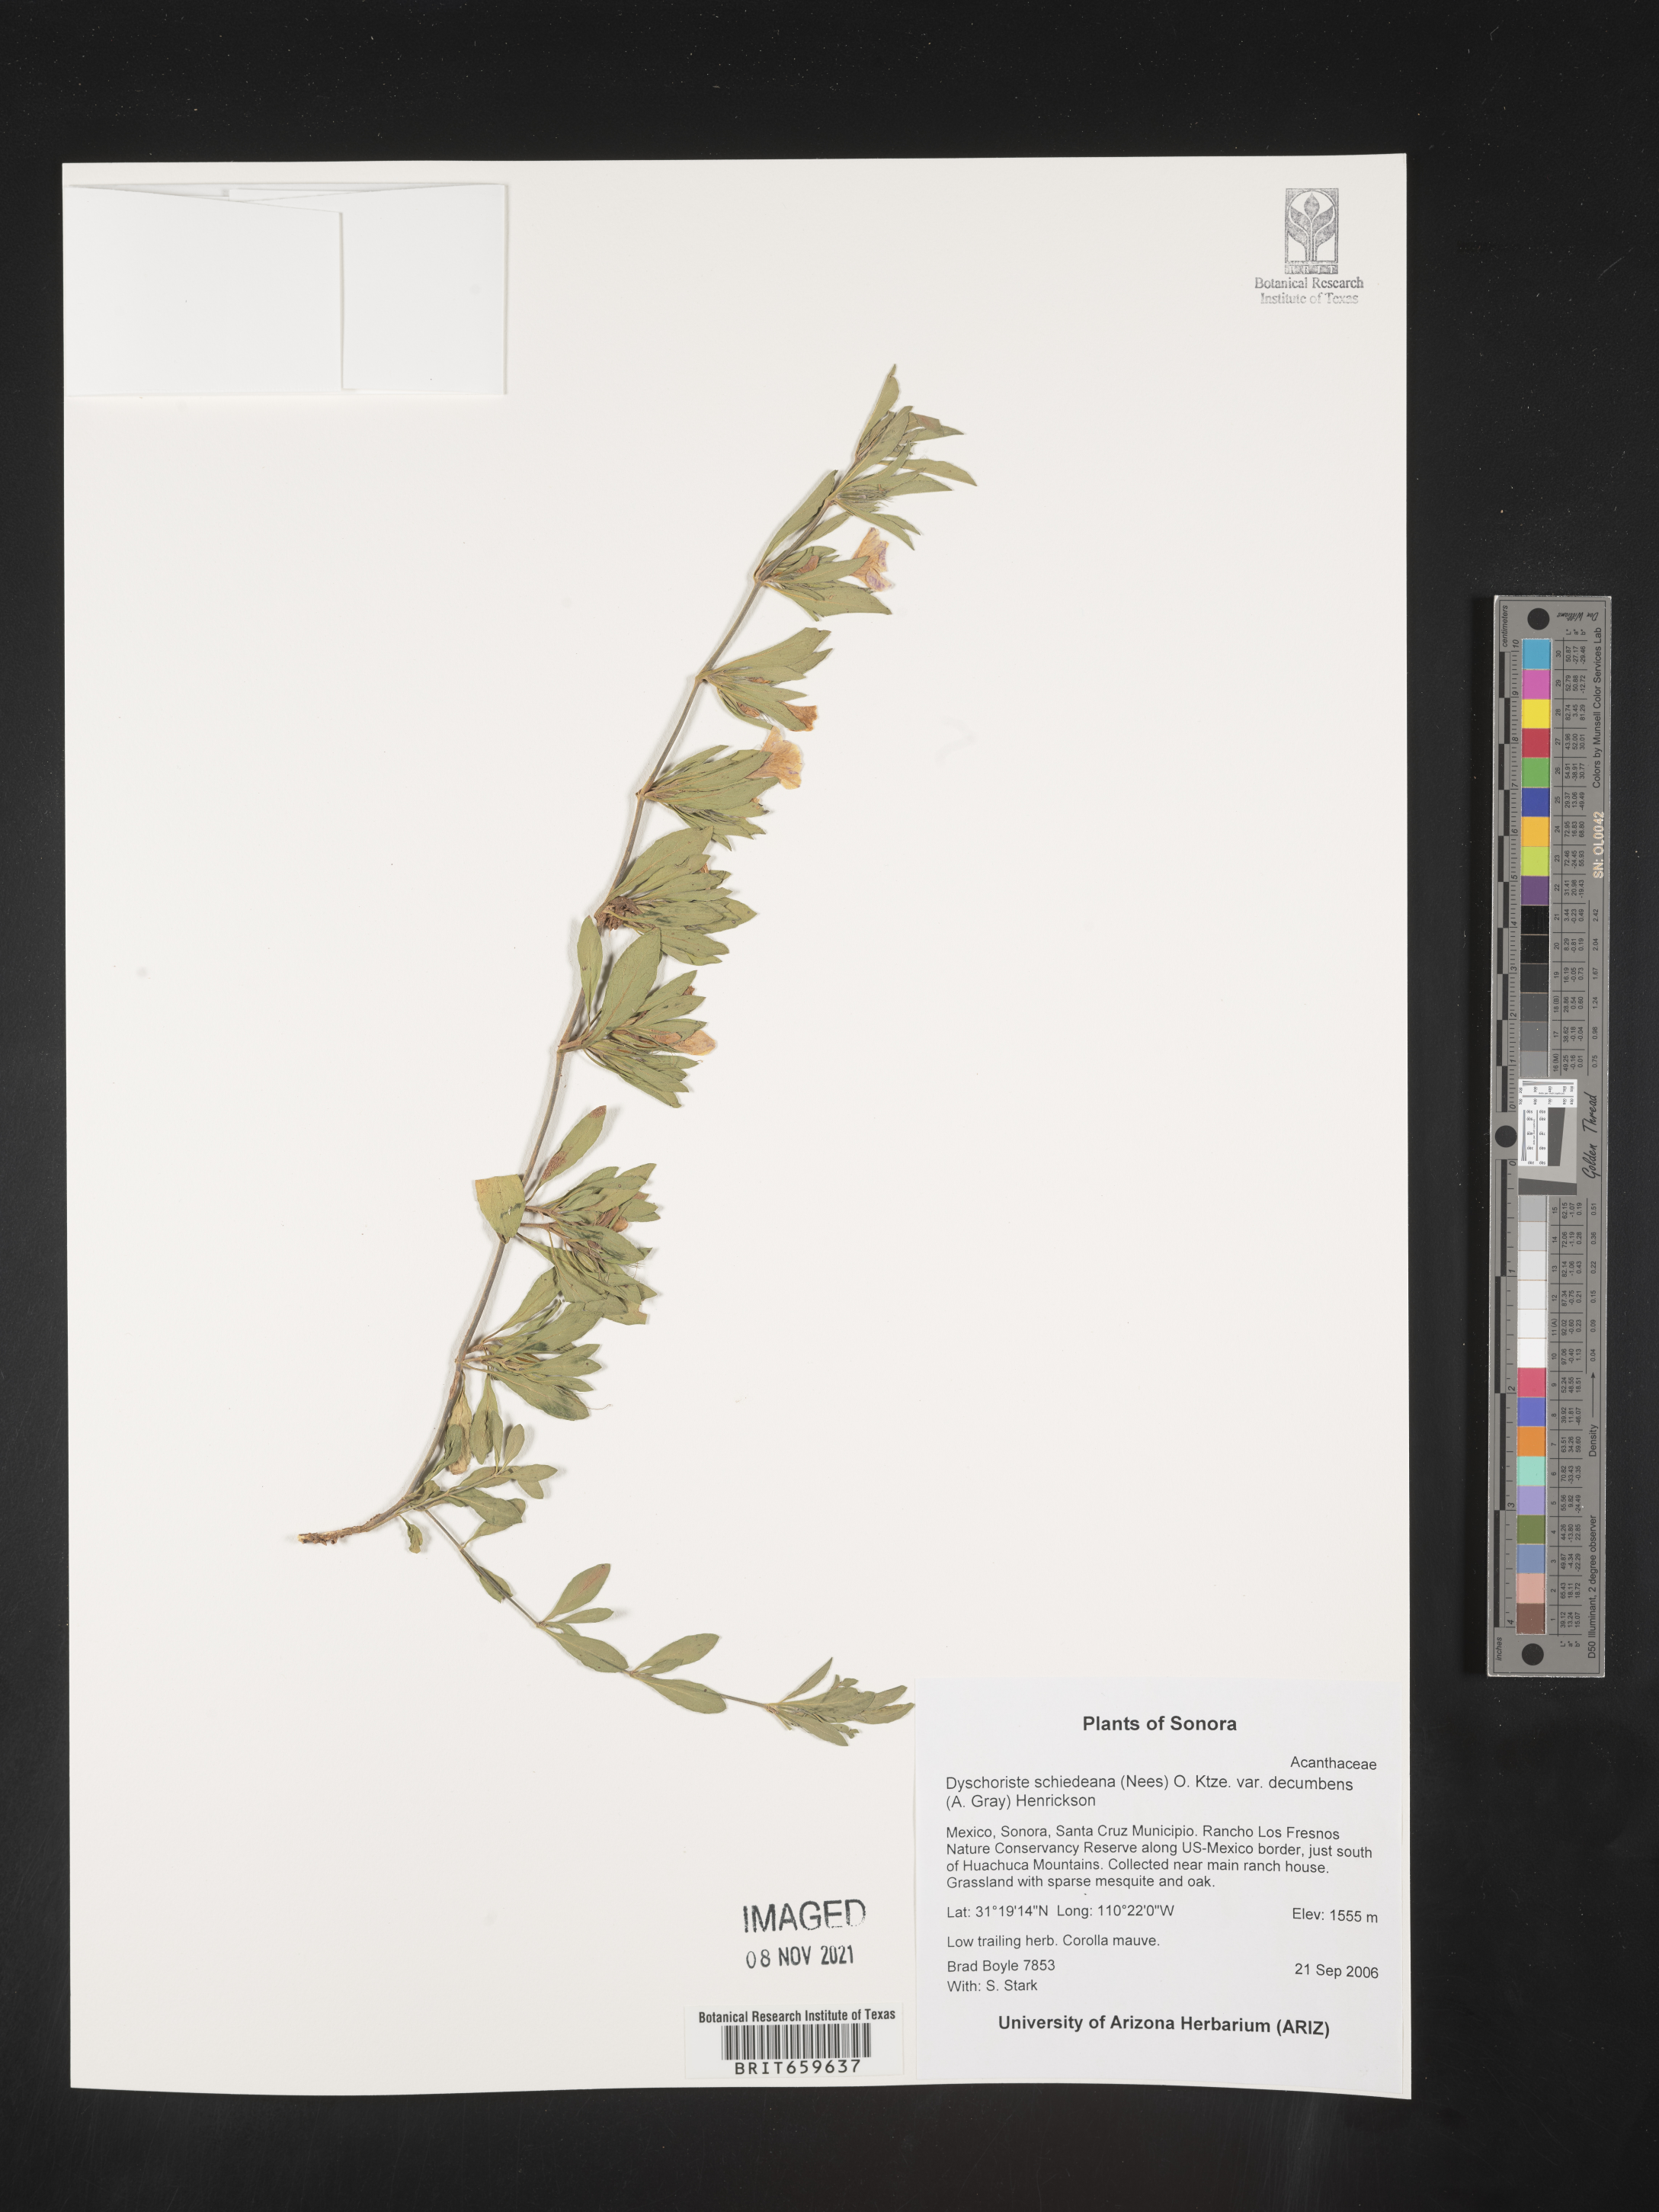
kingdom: Plantae
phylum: Tracheophyta
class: Magnoliopsida
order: Lamiales
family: Acanthaceae
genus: Dyschoriste
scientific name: Dyschoriste
